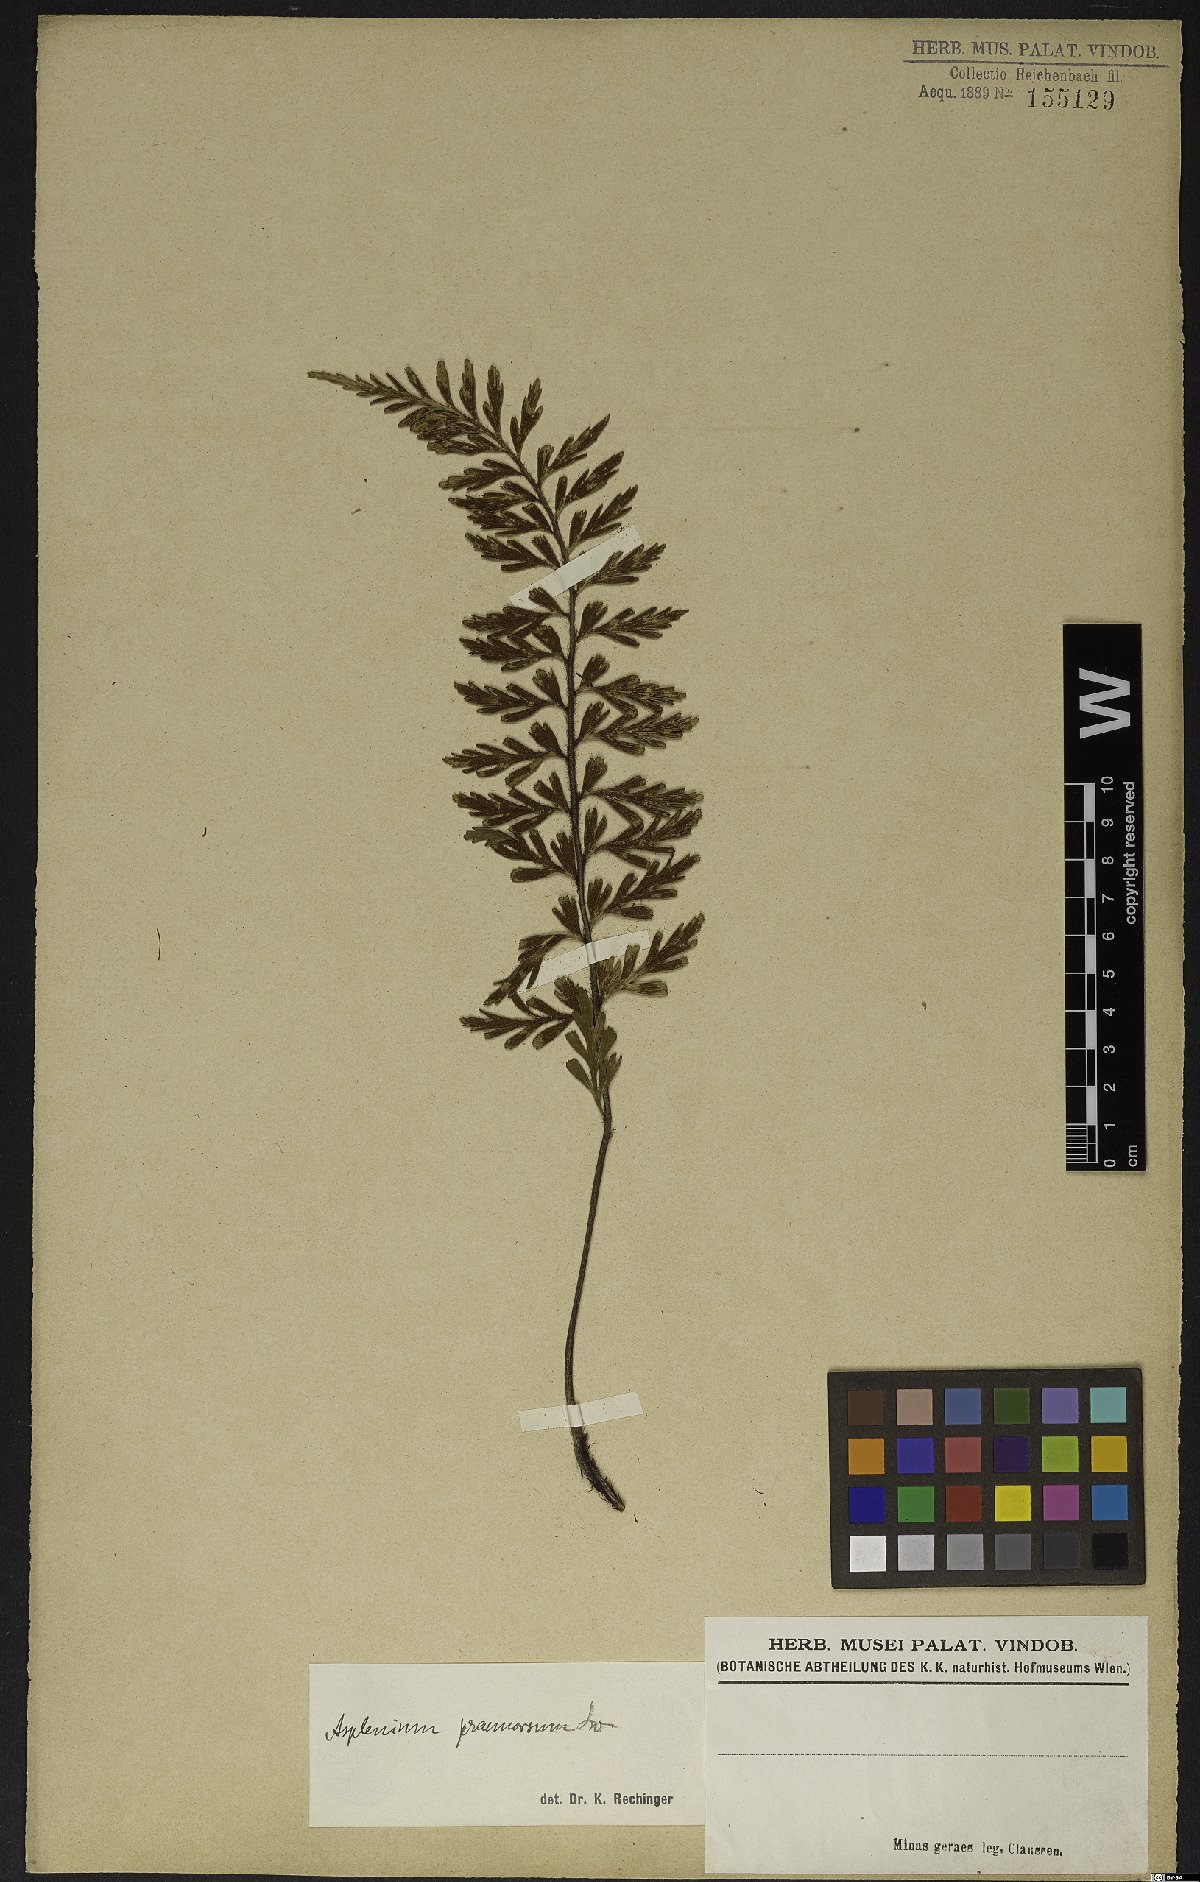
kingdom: Plantae
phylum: Tracheophyta
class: Polypodiopsida
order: Polypodiales
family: Aspleniaceae
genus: Asplenium
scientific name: Asplenium praemorsum
